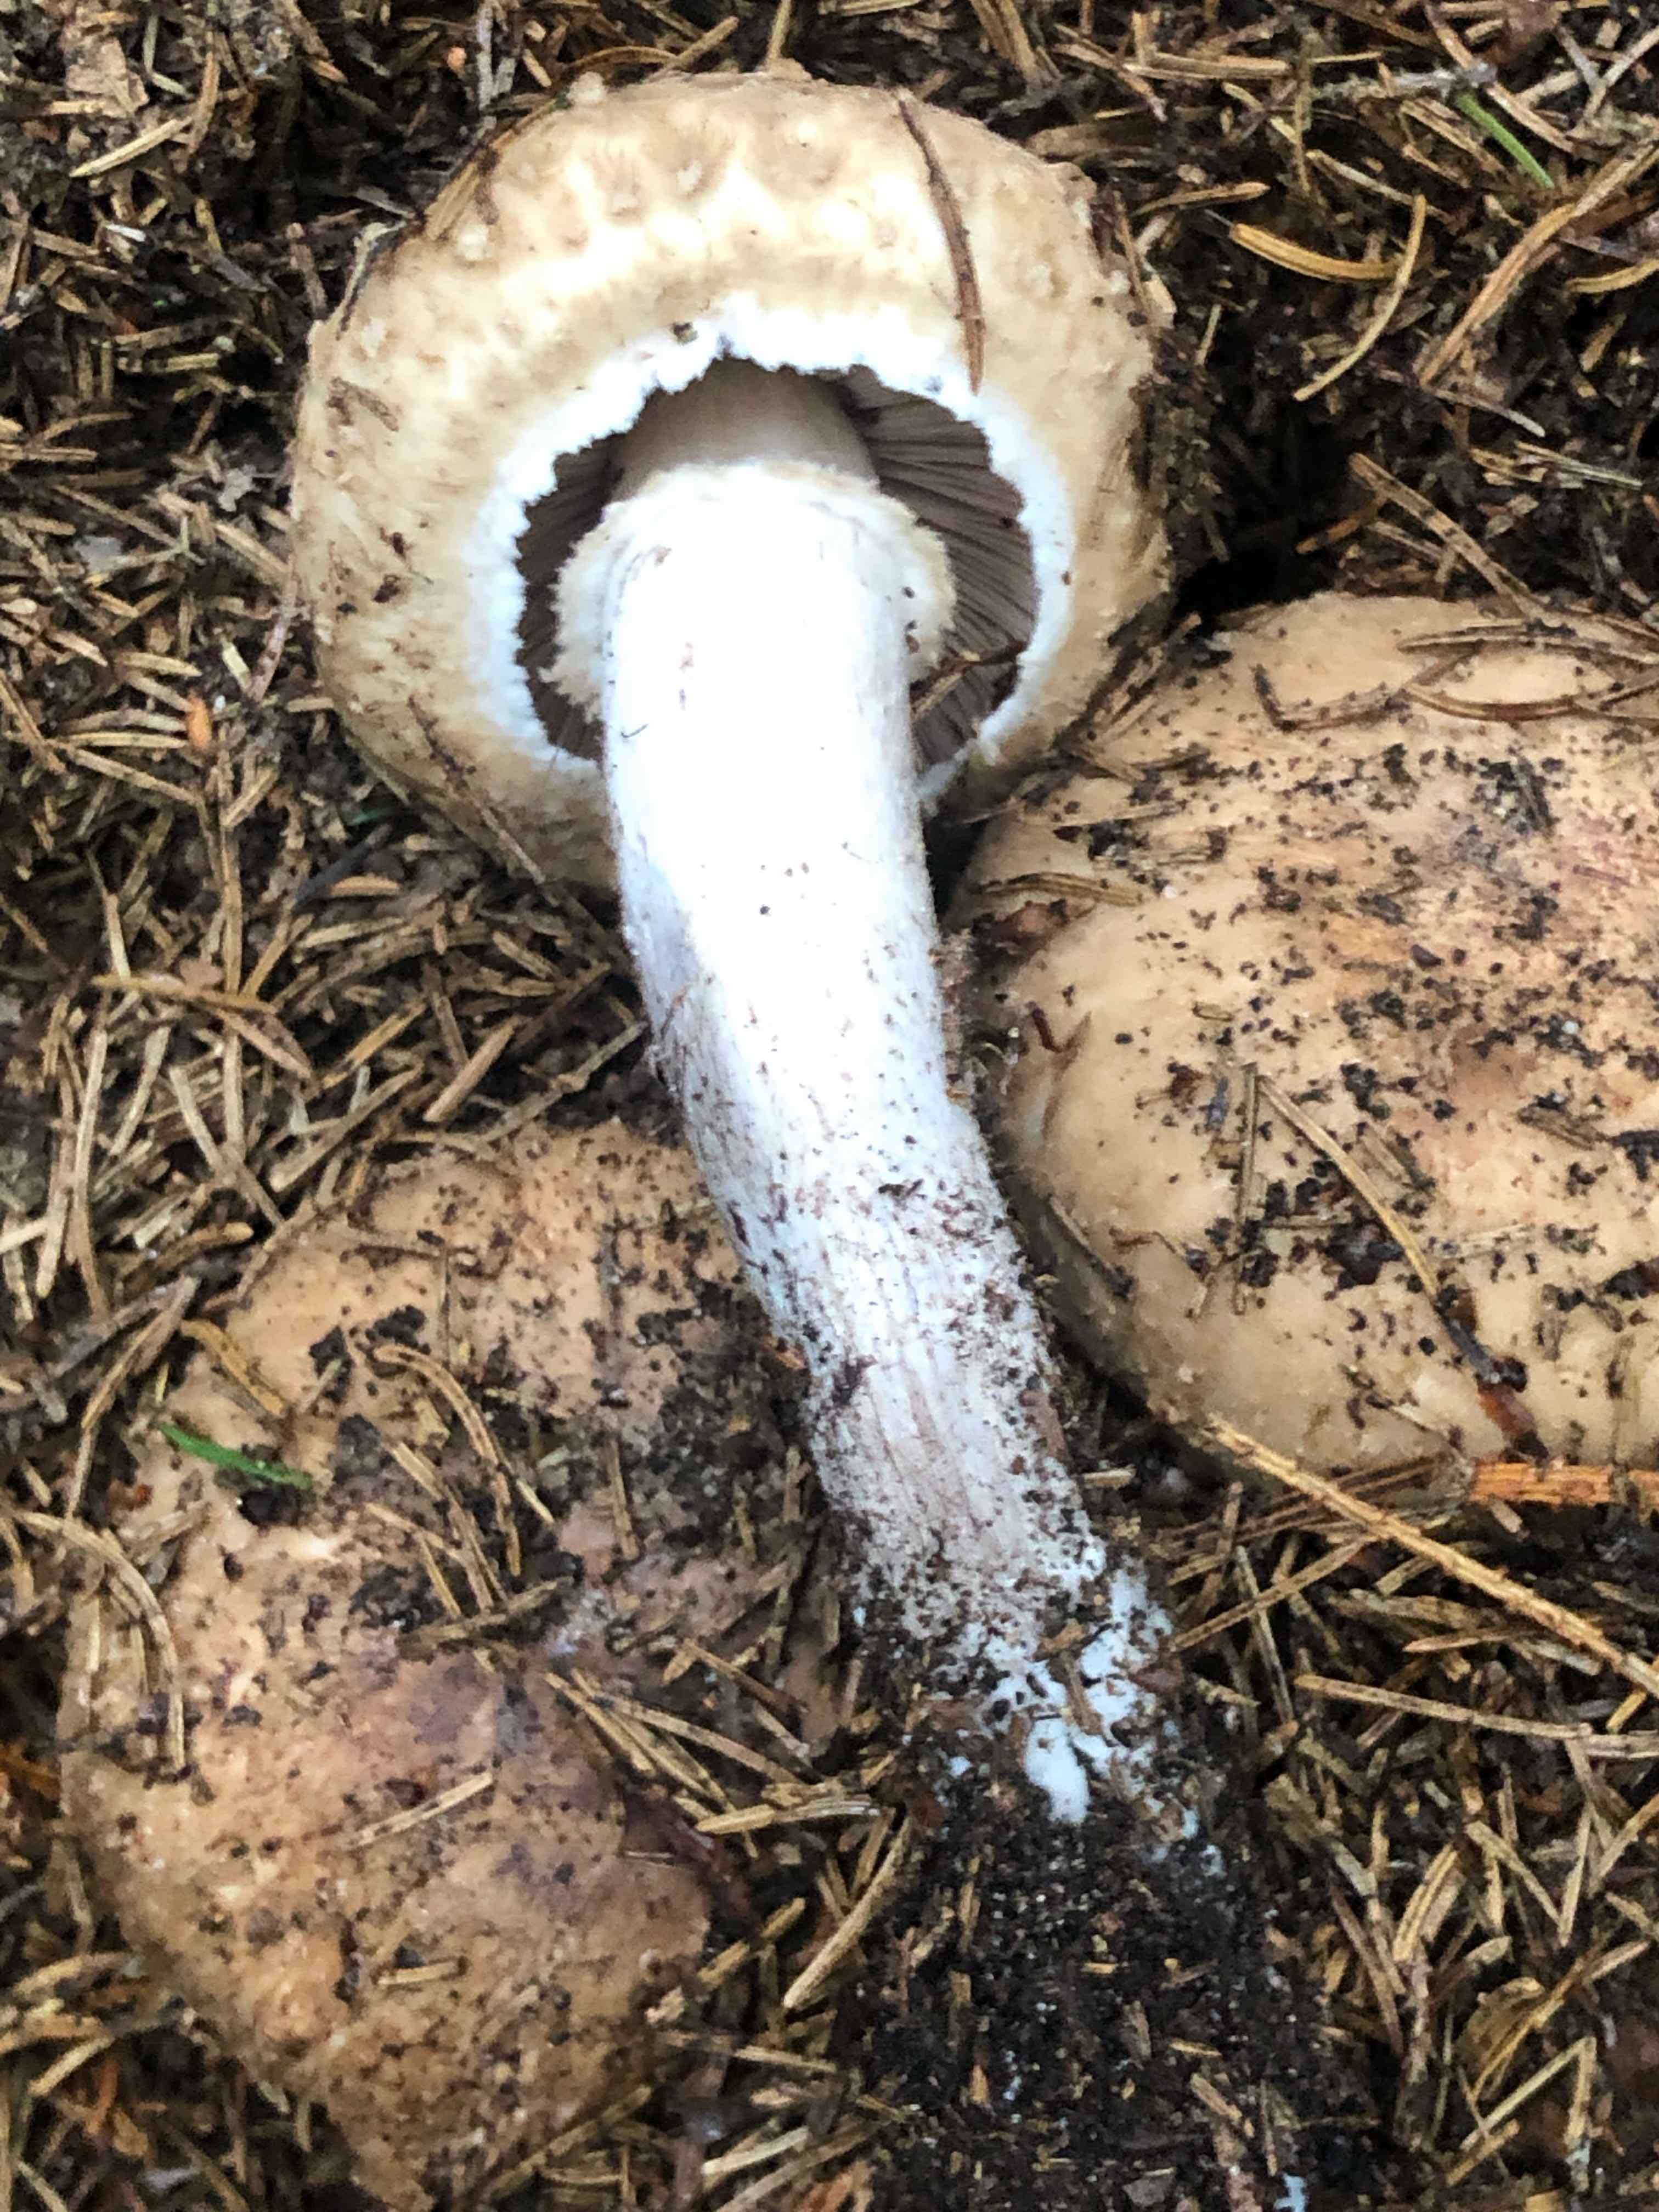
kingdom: Fungi
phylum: Basidiomycota
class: Agaricomycetes
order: Agaricales
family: Agaricaceae
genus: Agaricus
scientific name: Agaricus
